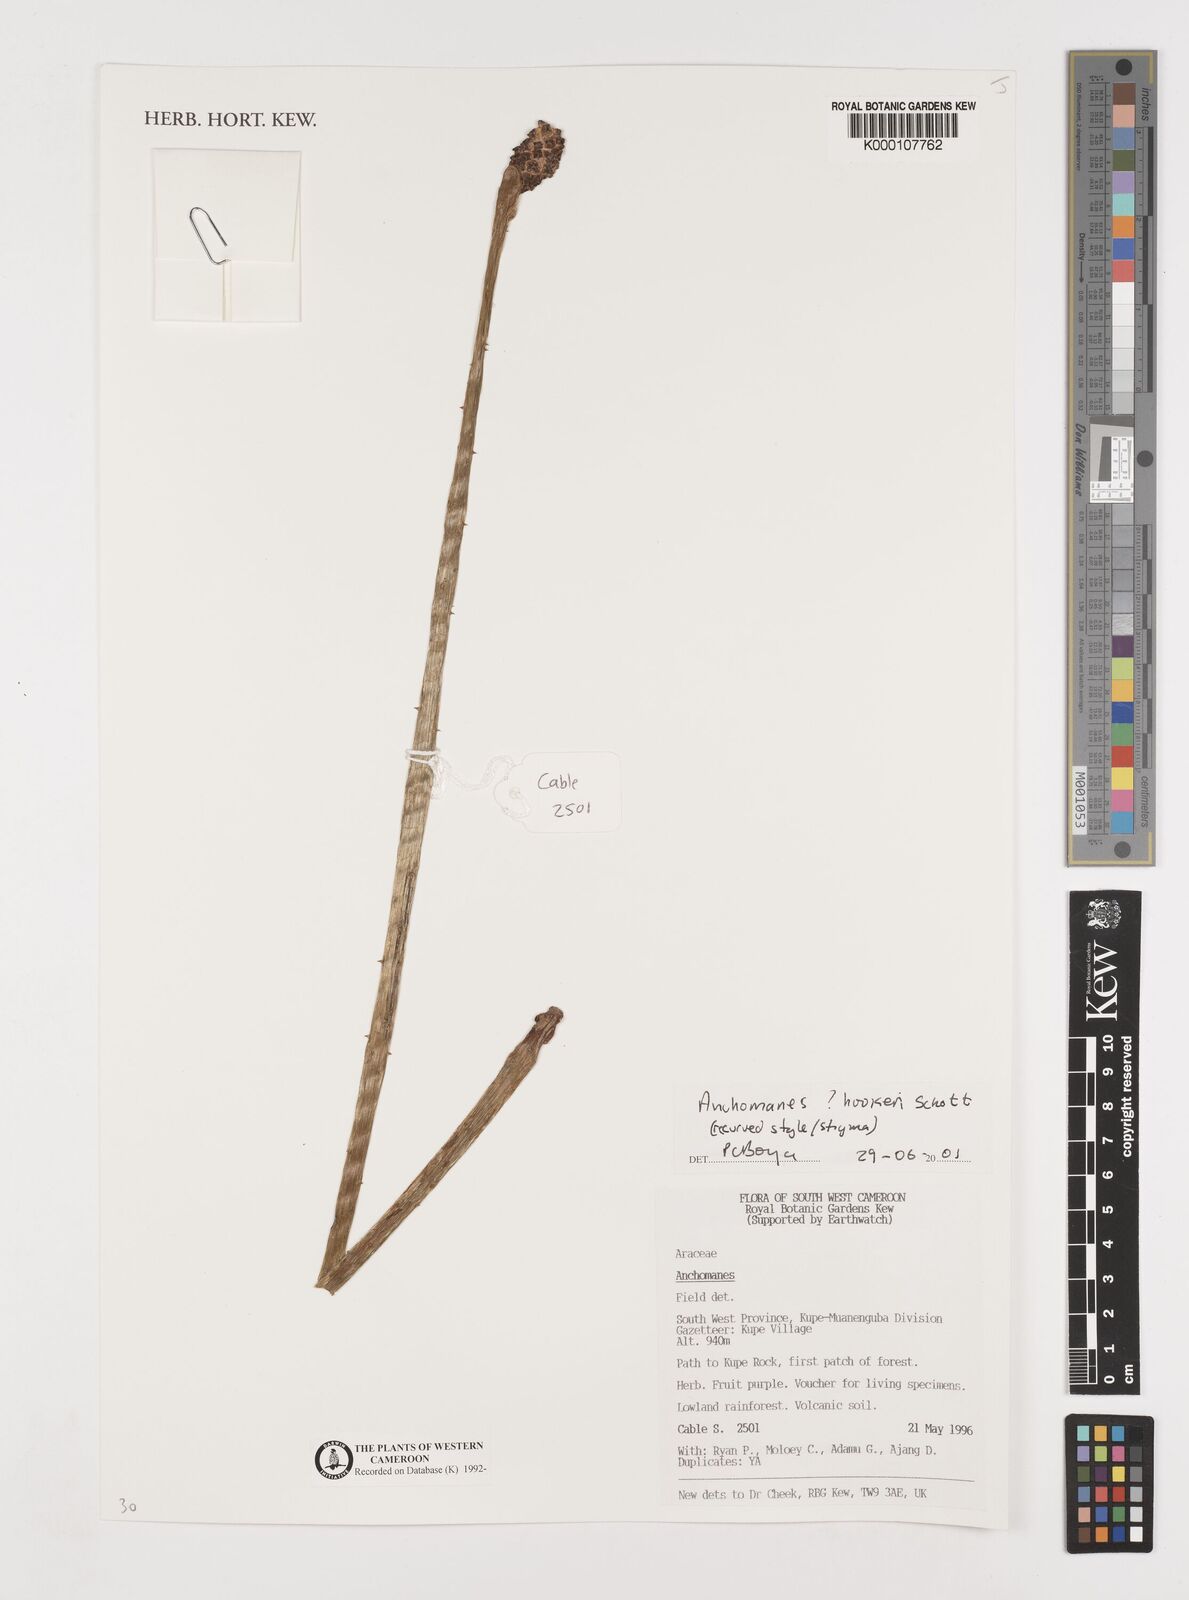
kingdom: Plantae
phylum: Tracheophyta
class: Liliopsida
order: Alismatales
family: Araceae
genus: Anchomanes
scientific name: Anchomanes difformis
